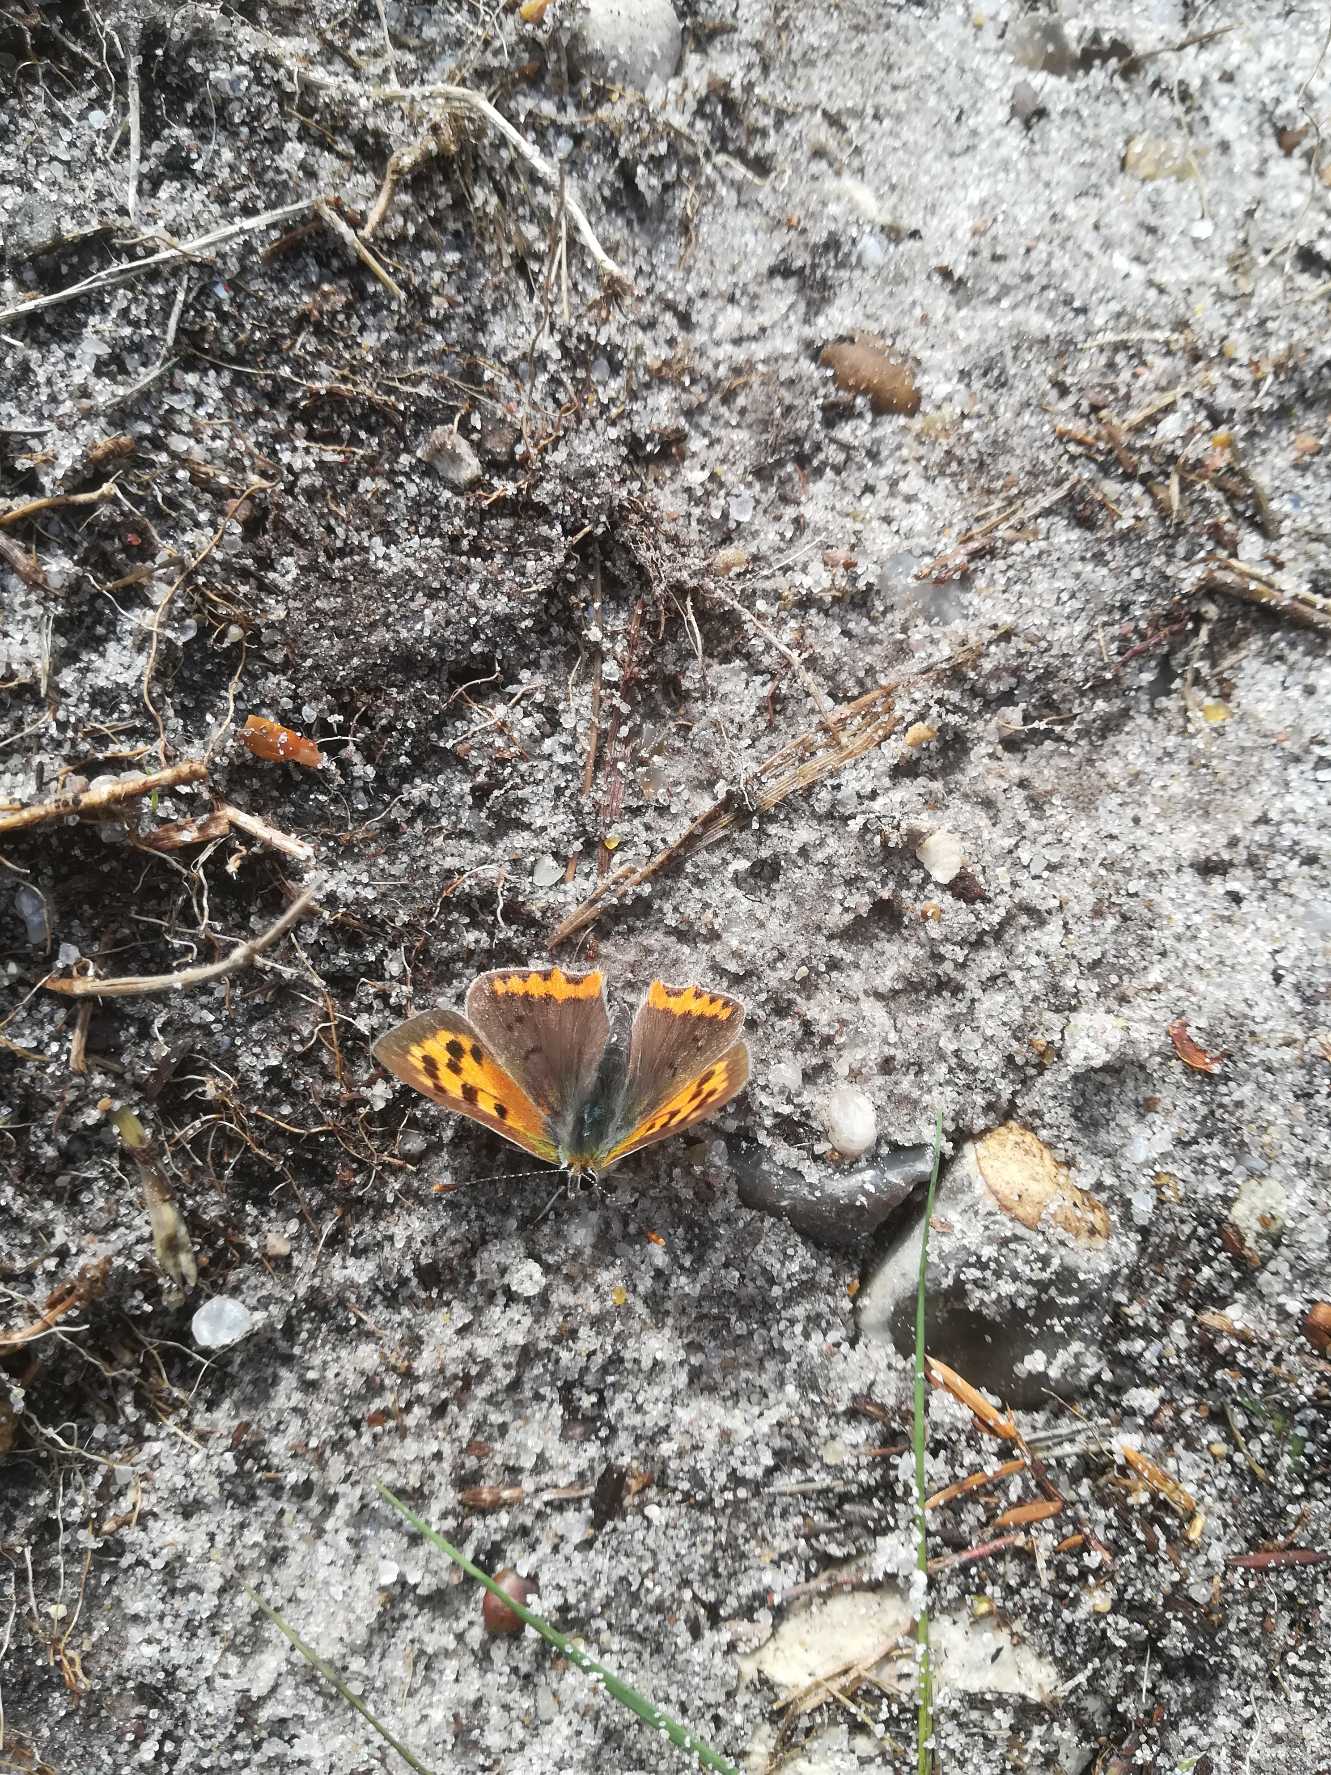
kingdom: Animalia
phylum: Arthropoda
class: Insecta
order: Lepidoptera
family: Lycaenidae
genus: Lycaena
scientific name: Lycaena phlaeas
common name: Lille ildfugl
